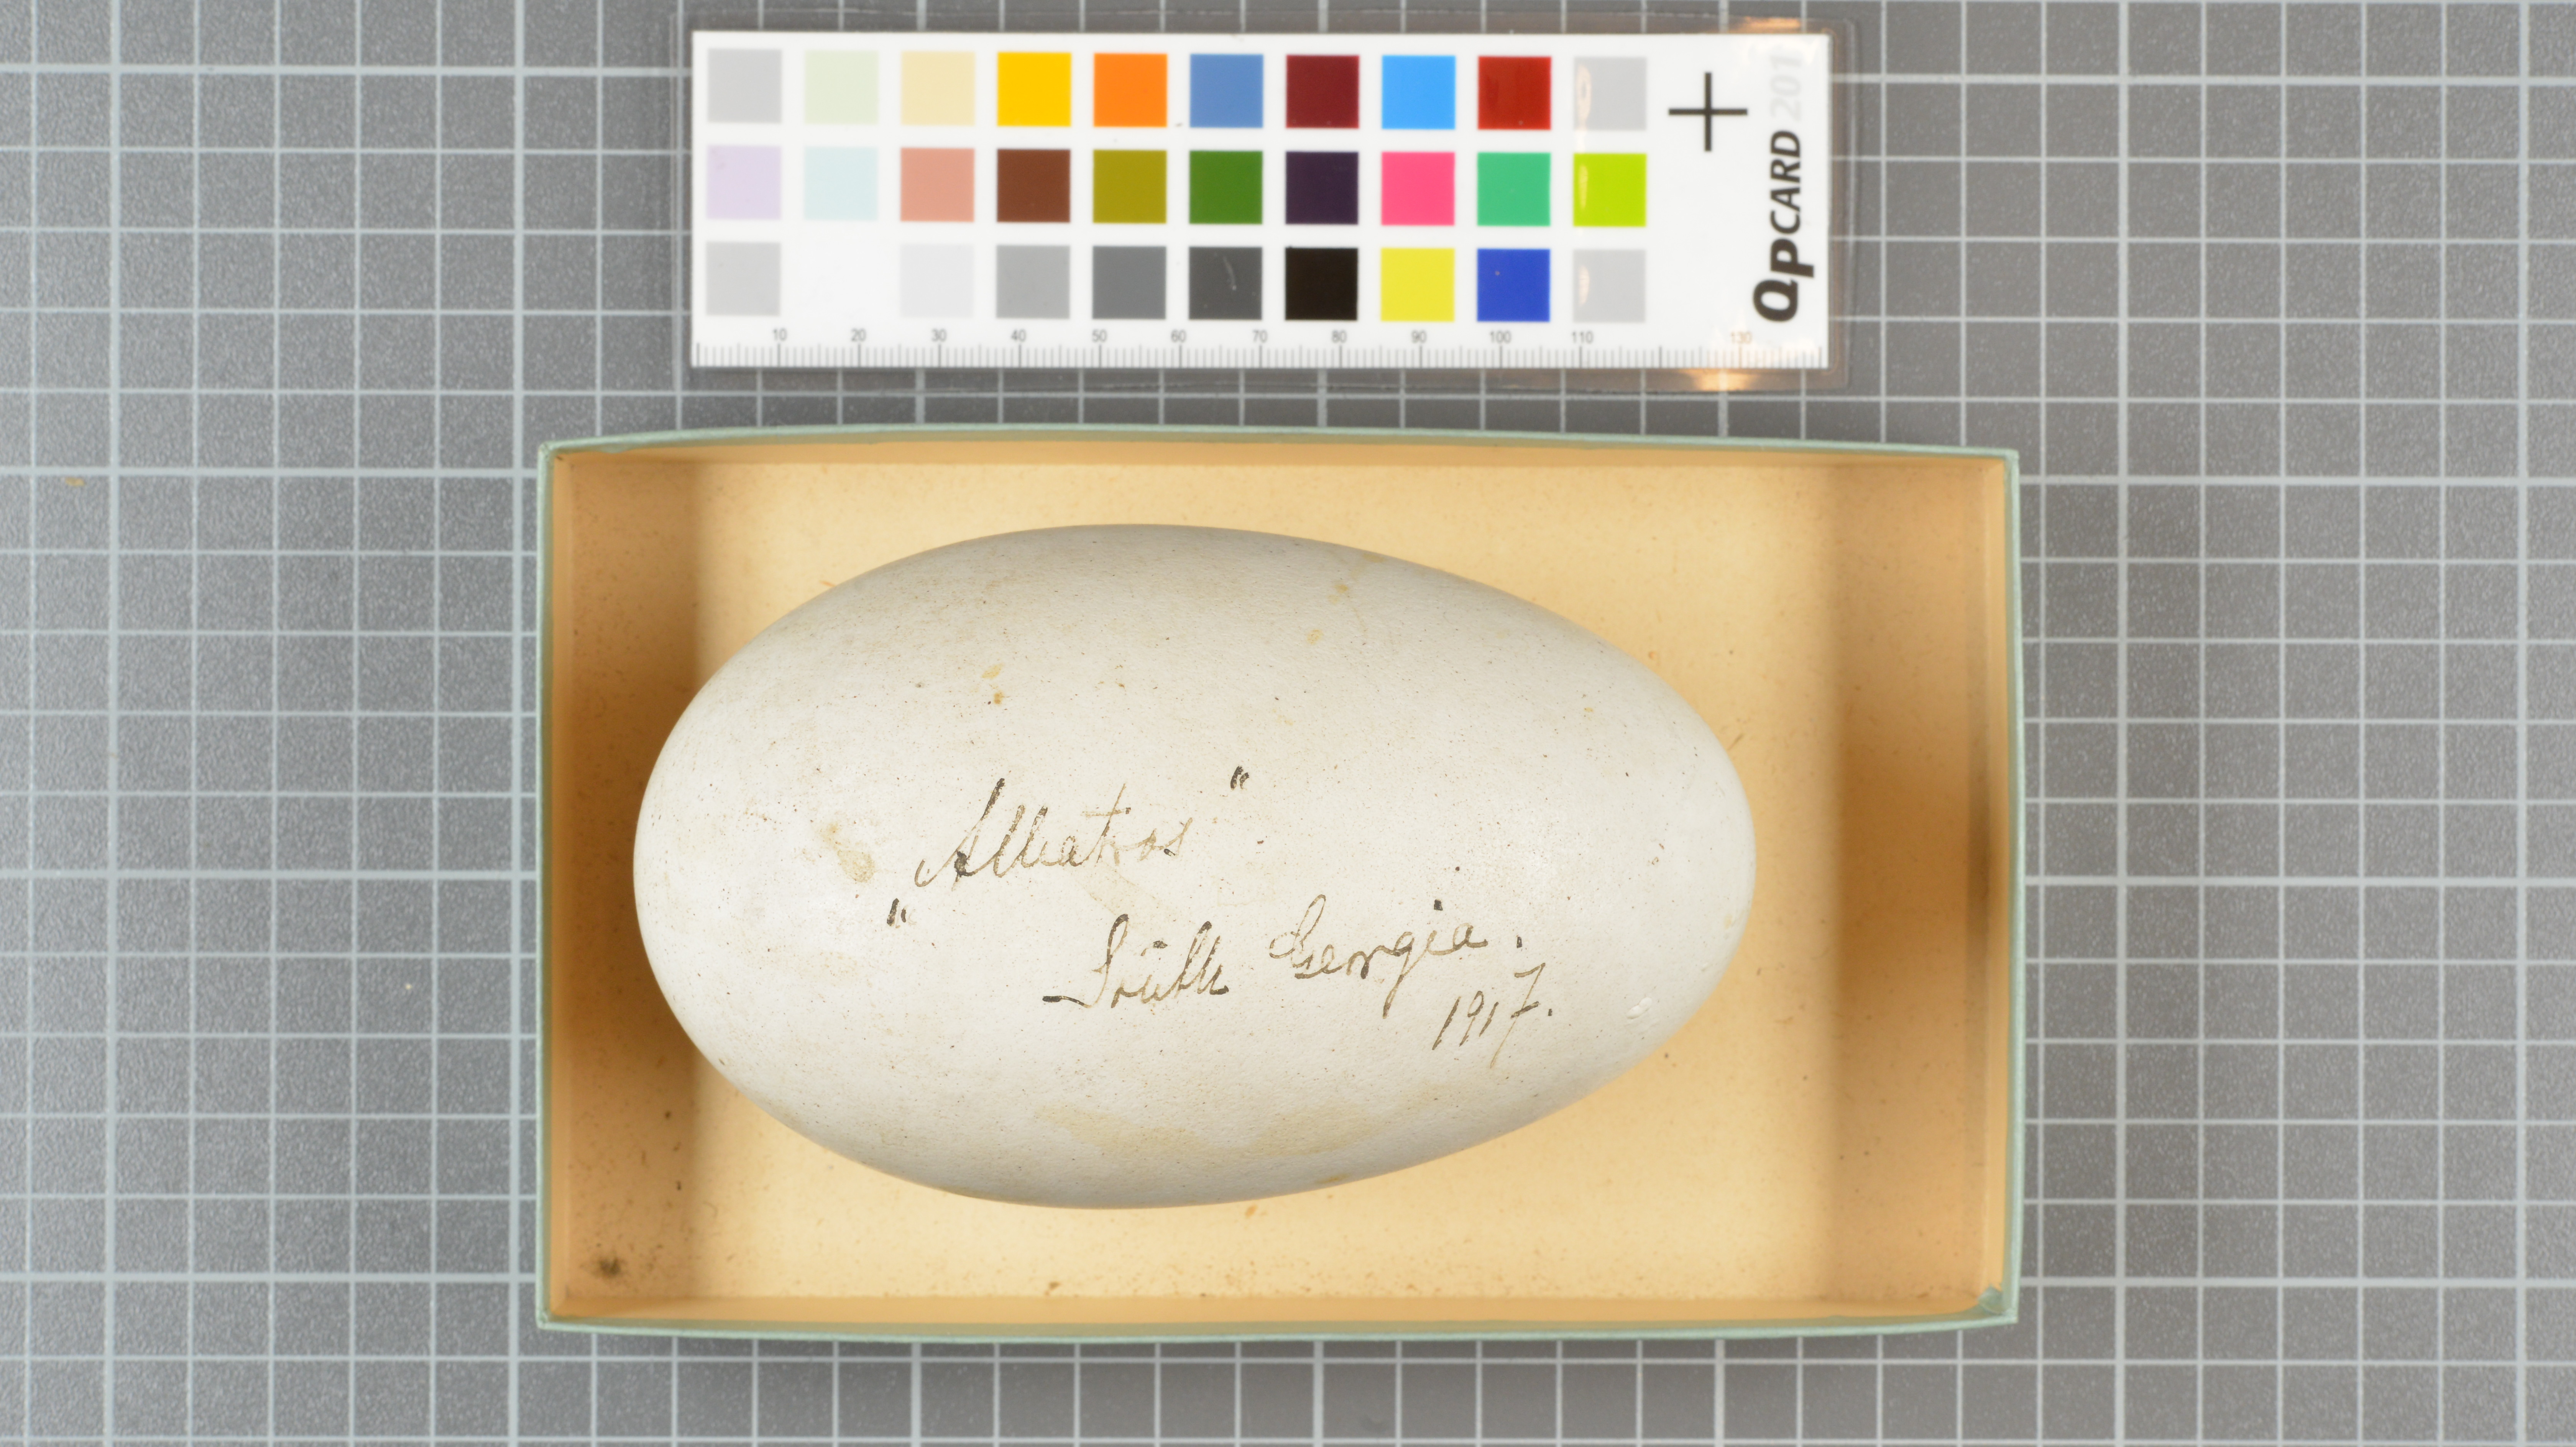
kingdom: Animalia
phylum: Chordata
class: Aves
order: Procellariiformes
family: Diomedeidae
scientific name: Diomedeidae
